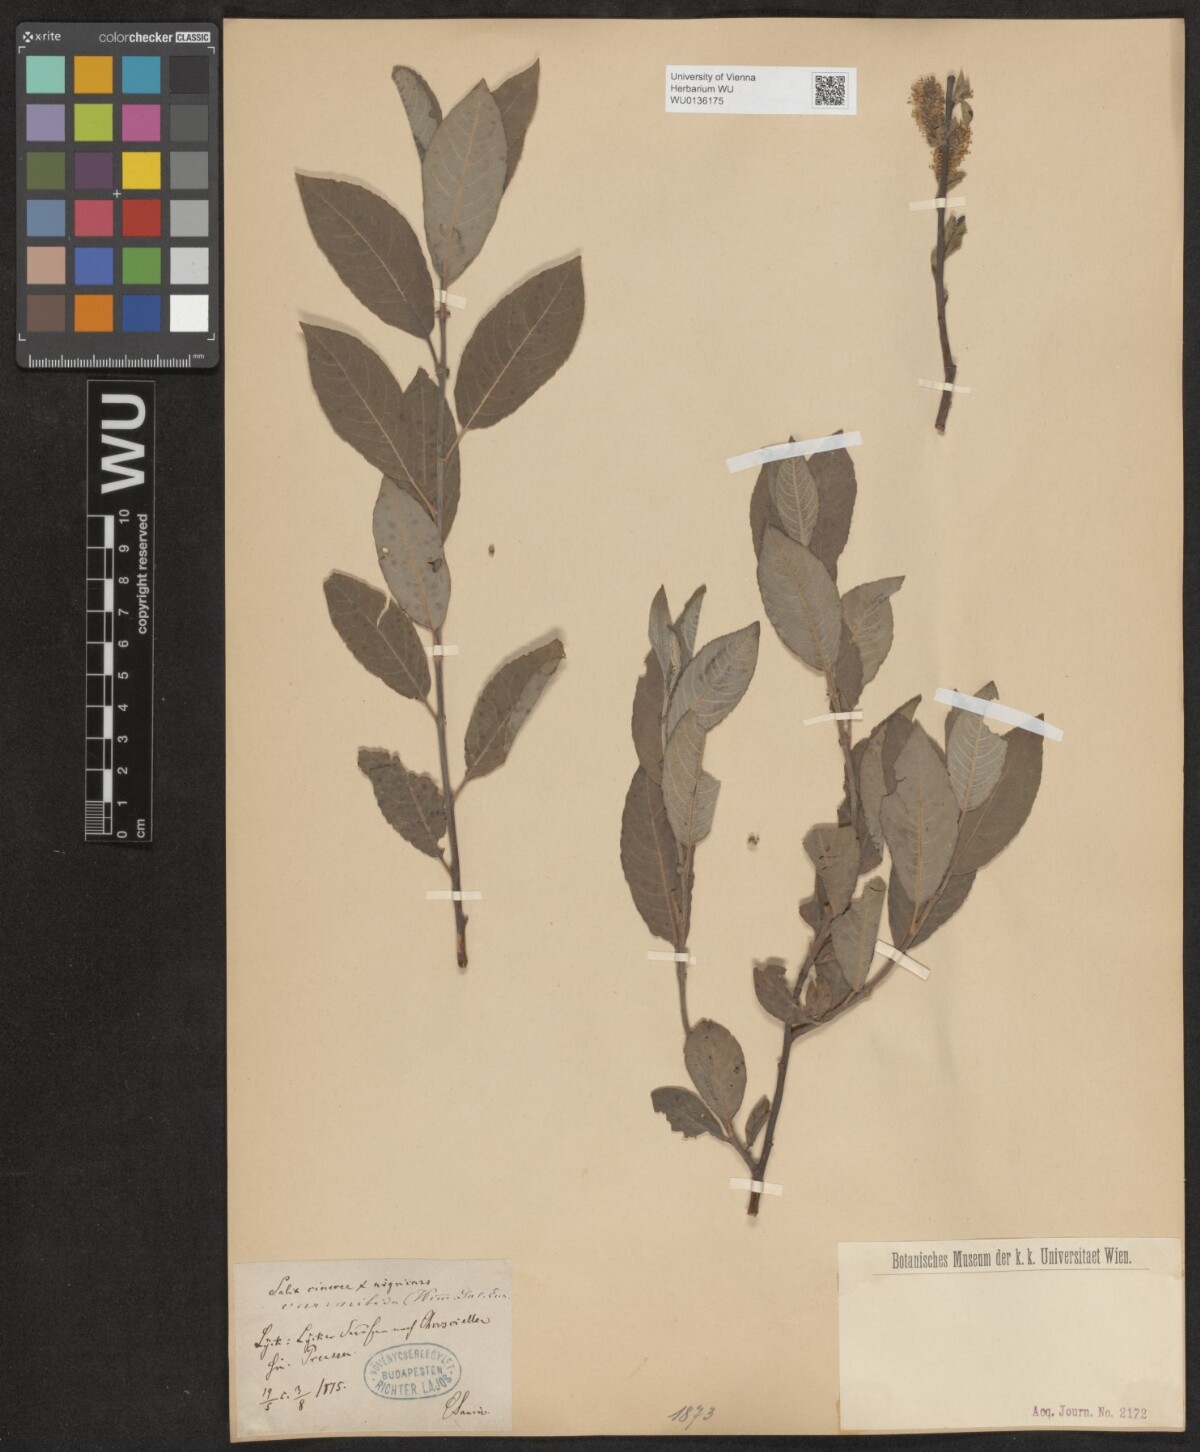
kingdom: Plantae
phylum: Tracheophyta
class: Magnoliopsida
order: Malpighiales
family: Salicaceae
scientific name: Salicaceae
